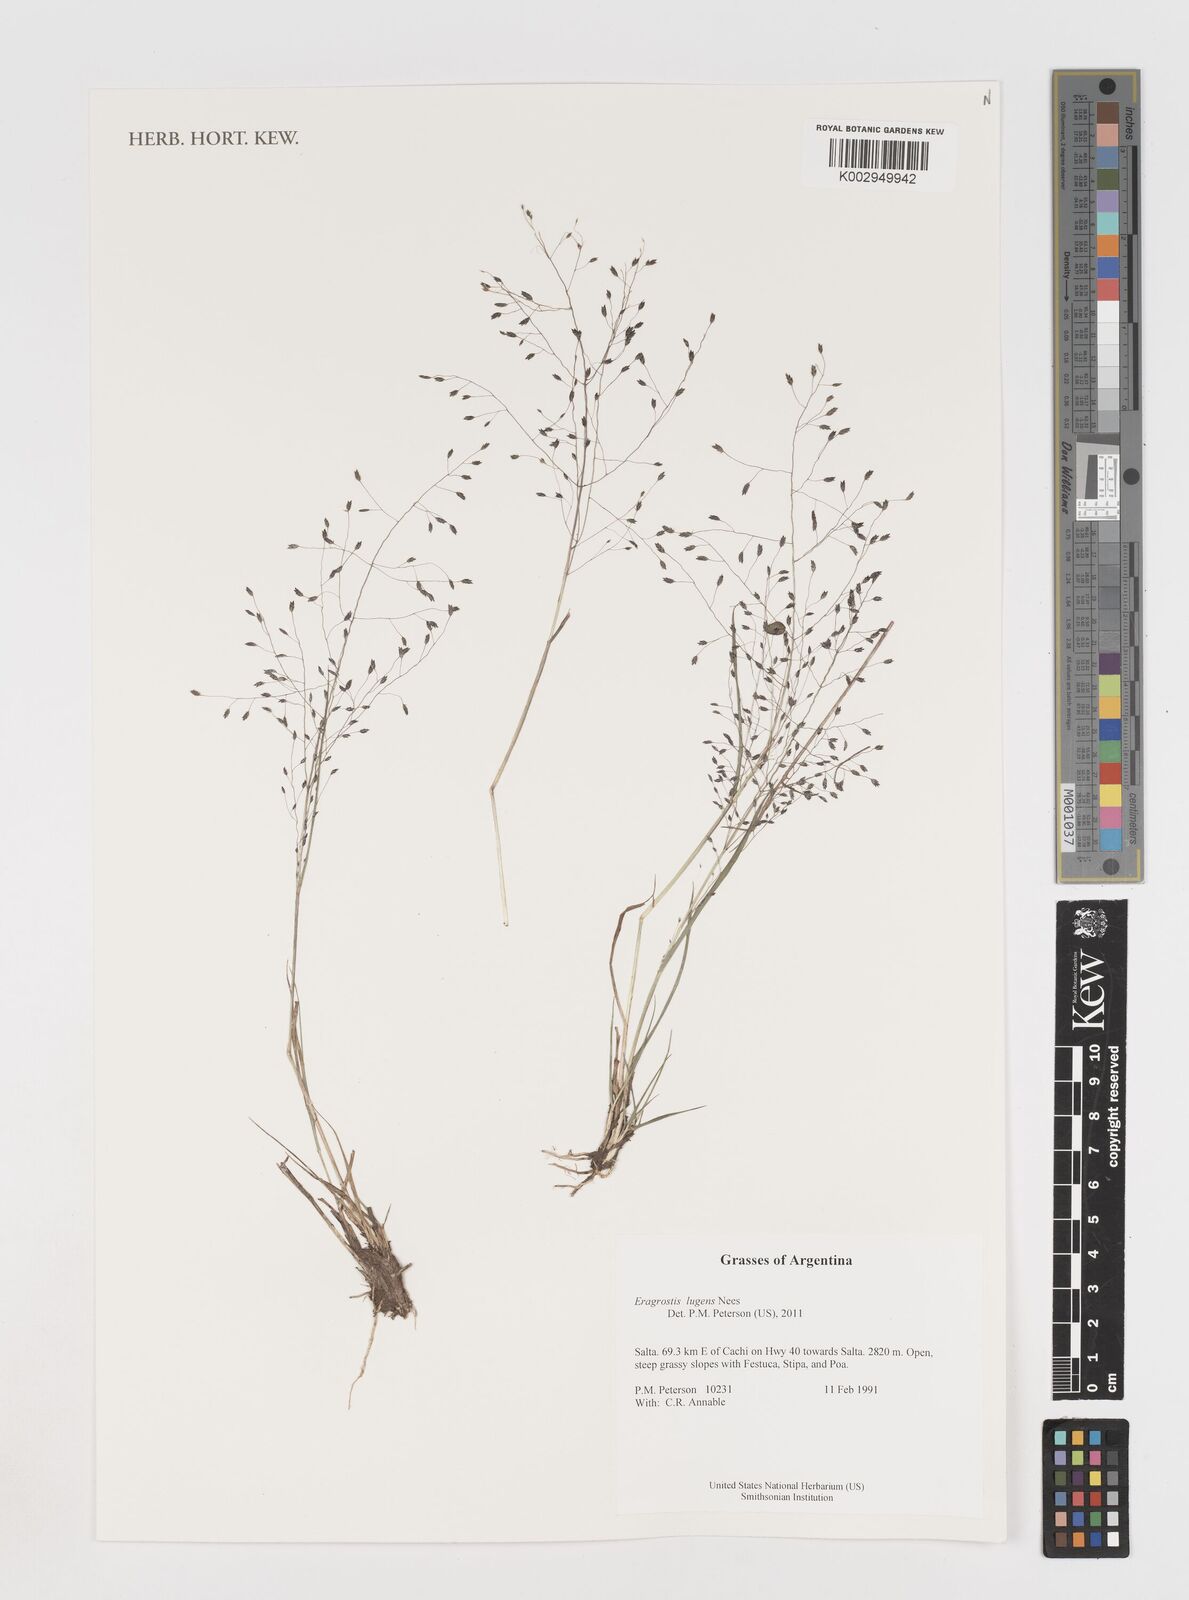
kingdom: Plantae
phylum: Tracheophyta
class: Liliopsida
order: Poales
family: Poaceae
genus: Eragrostis
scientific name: Eragrostis lugens
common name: Mourning love grass
